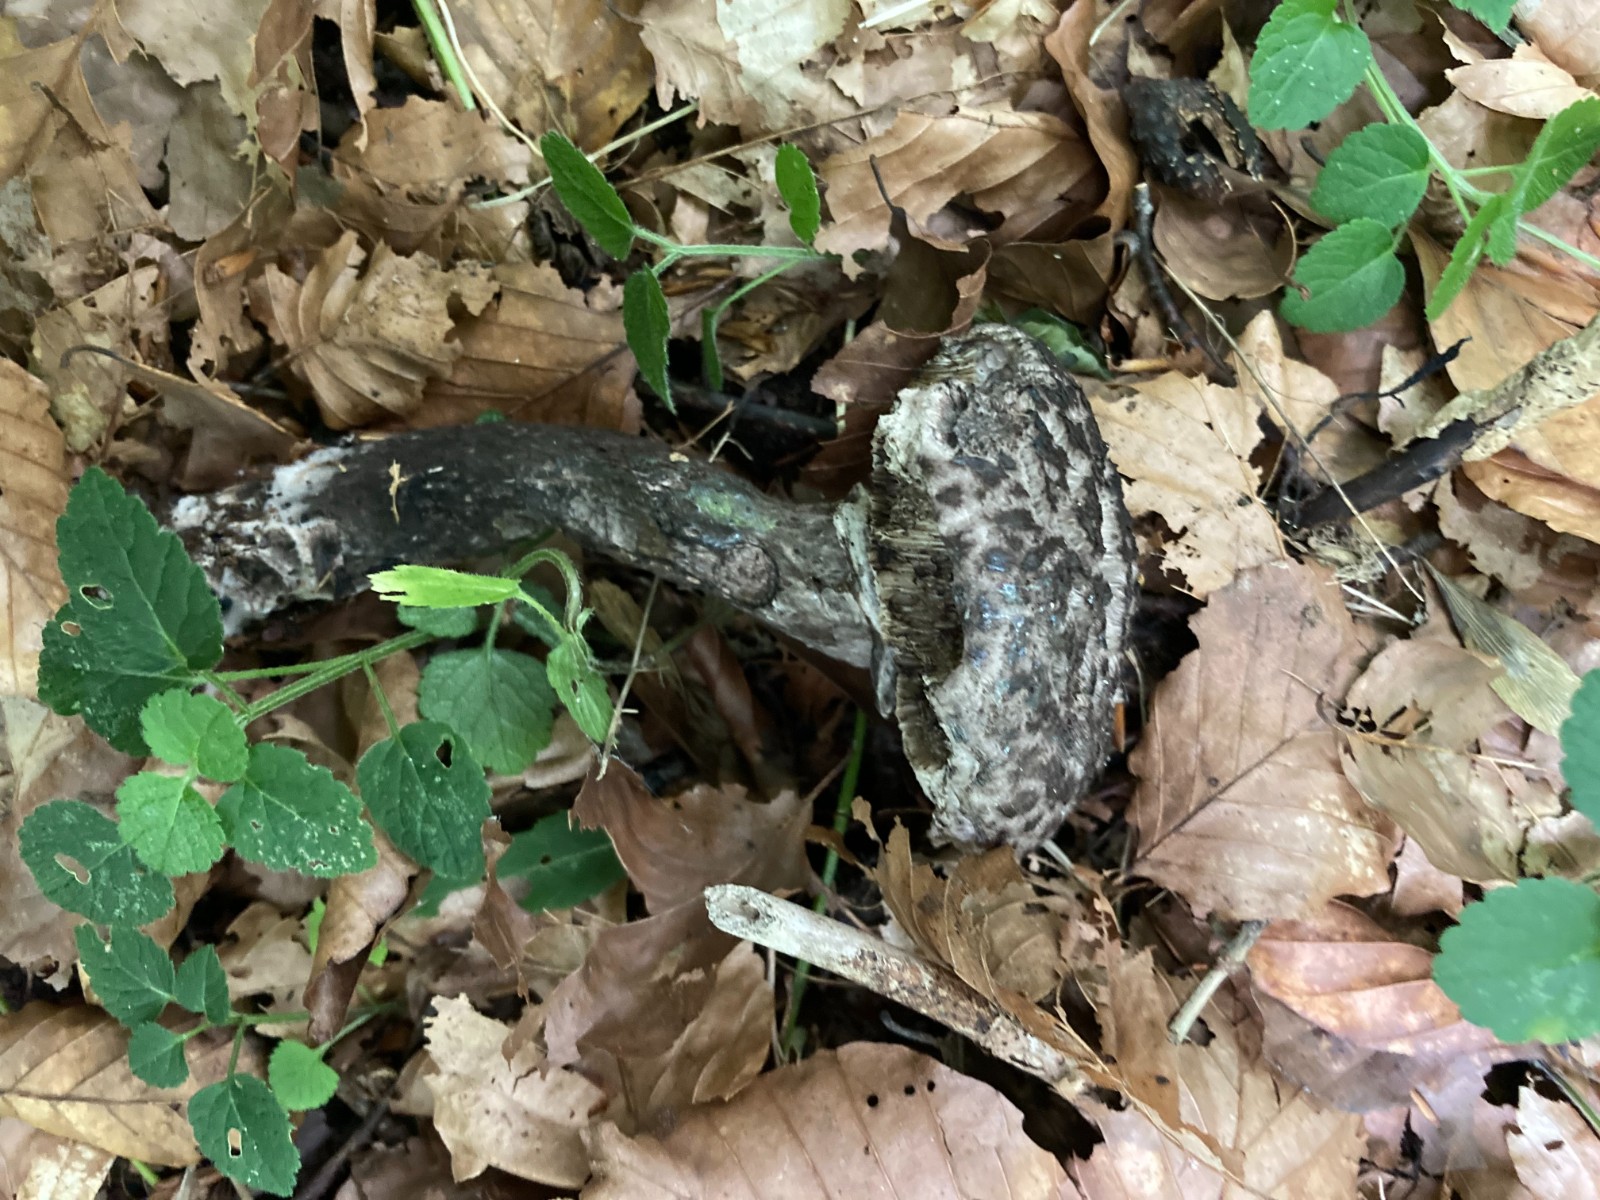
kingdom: Fungi
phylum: Basidiomycota
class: Agaricomycetes
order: Boletales
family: Boletaceae
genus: Strobilomyces
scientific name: Strobilomyces strobilaceus
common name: koglerørhat
